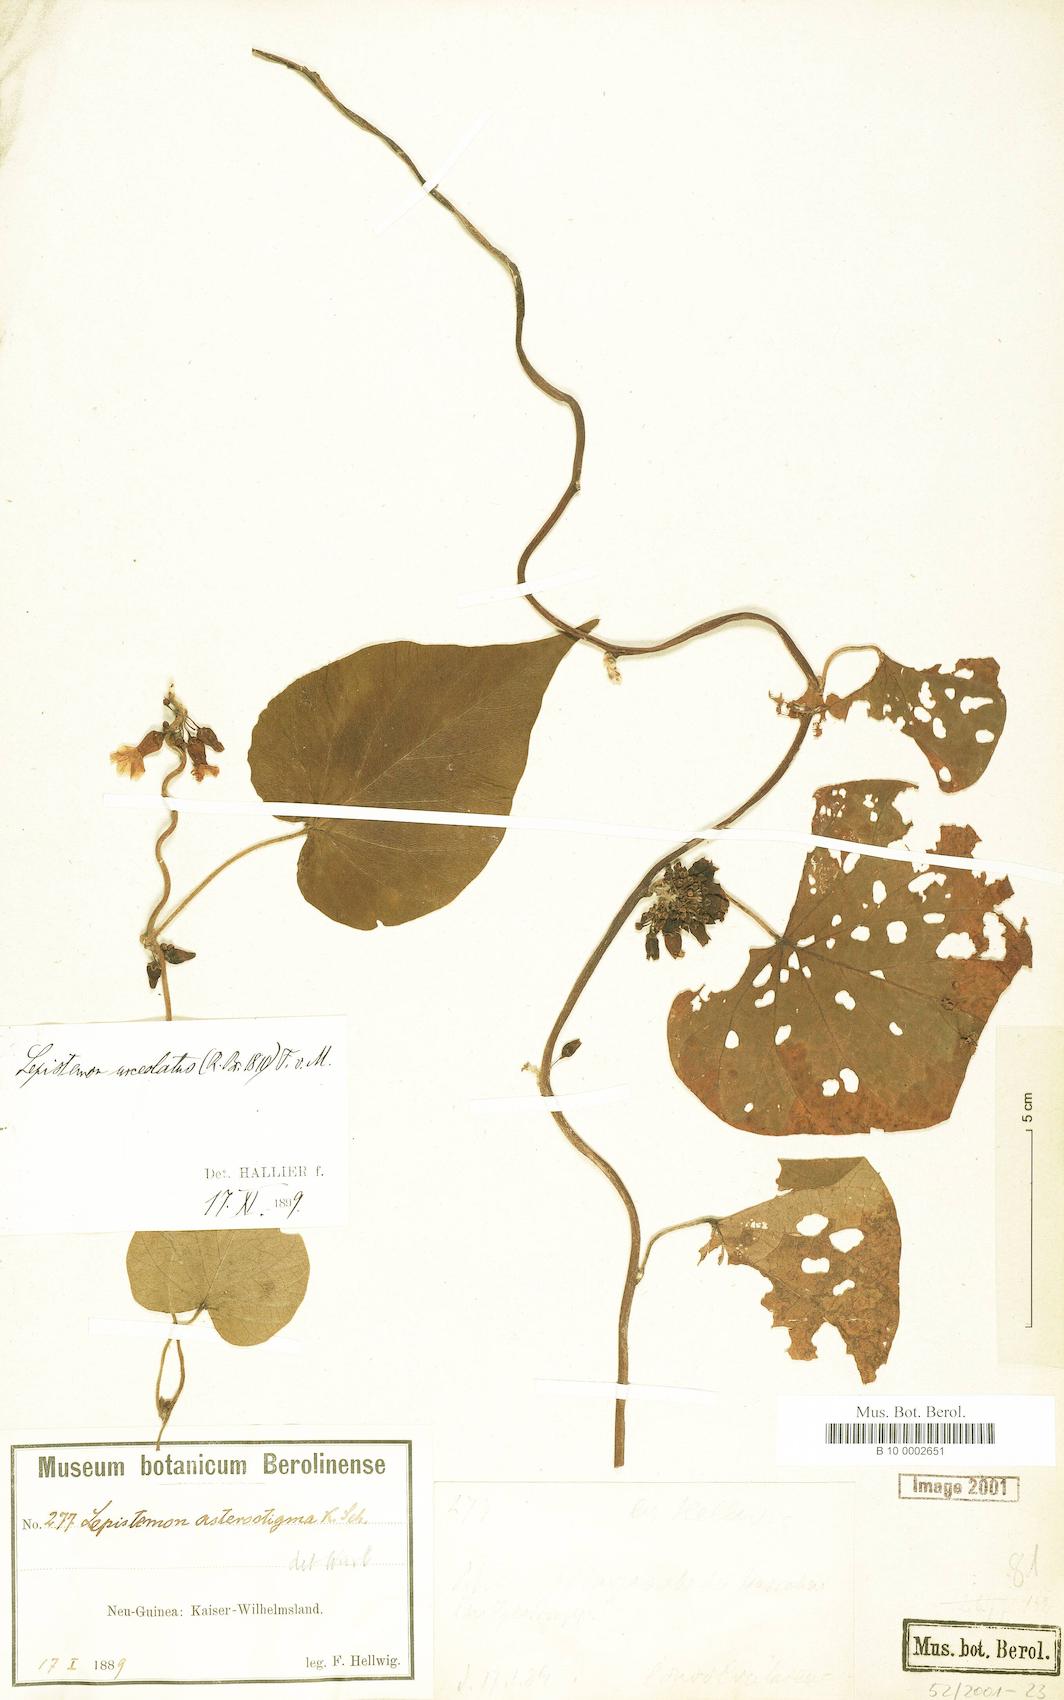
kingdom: Plantae
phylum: Tracheophyta
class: Magnoliopsida
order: Solanales
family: Convolvulaceae
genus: Lepistemon
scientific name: Lepistemon urceolatus
